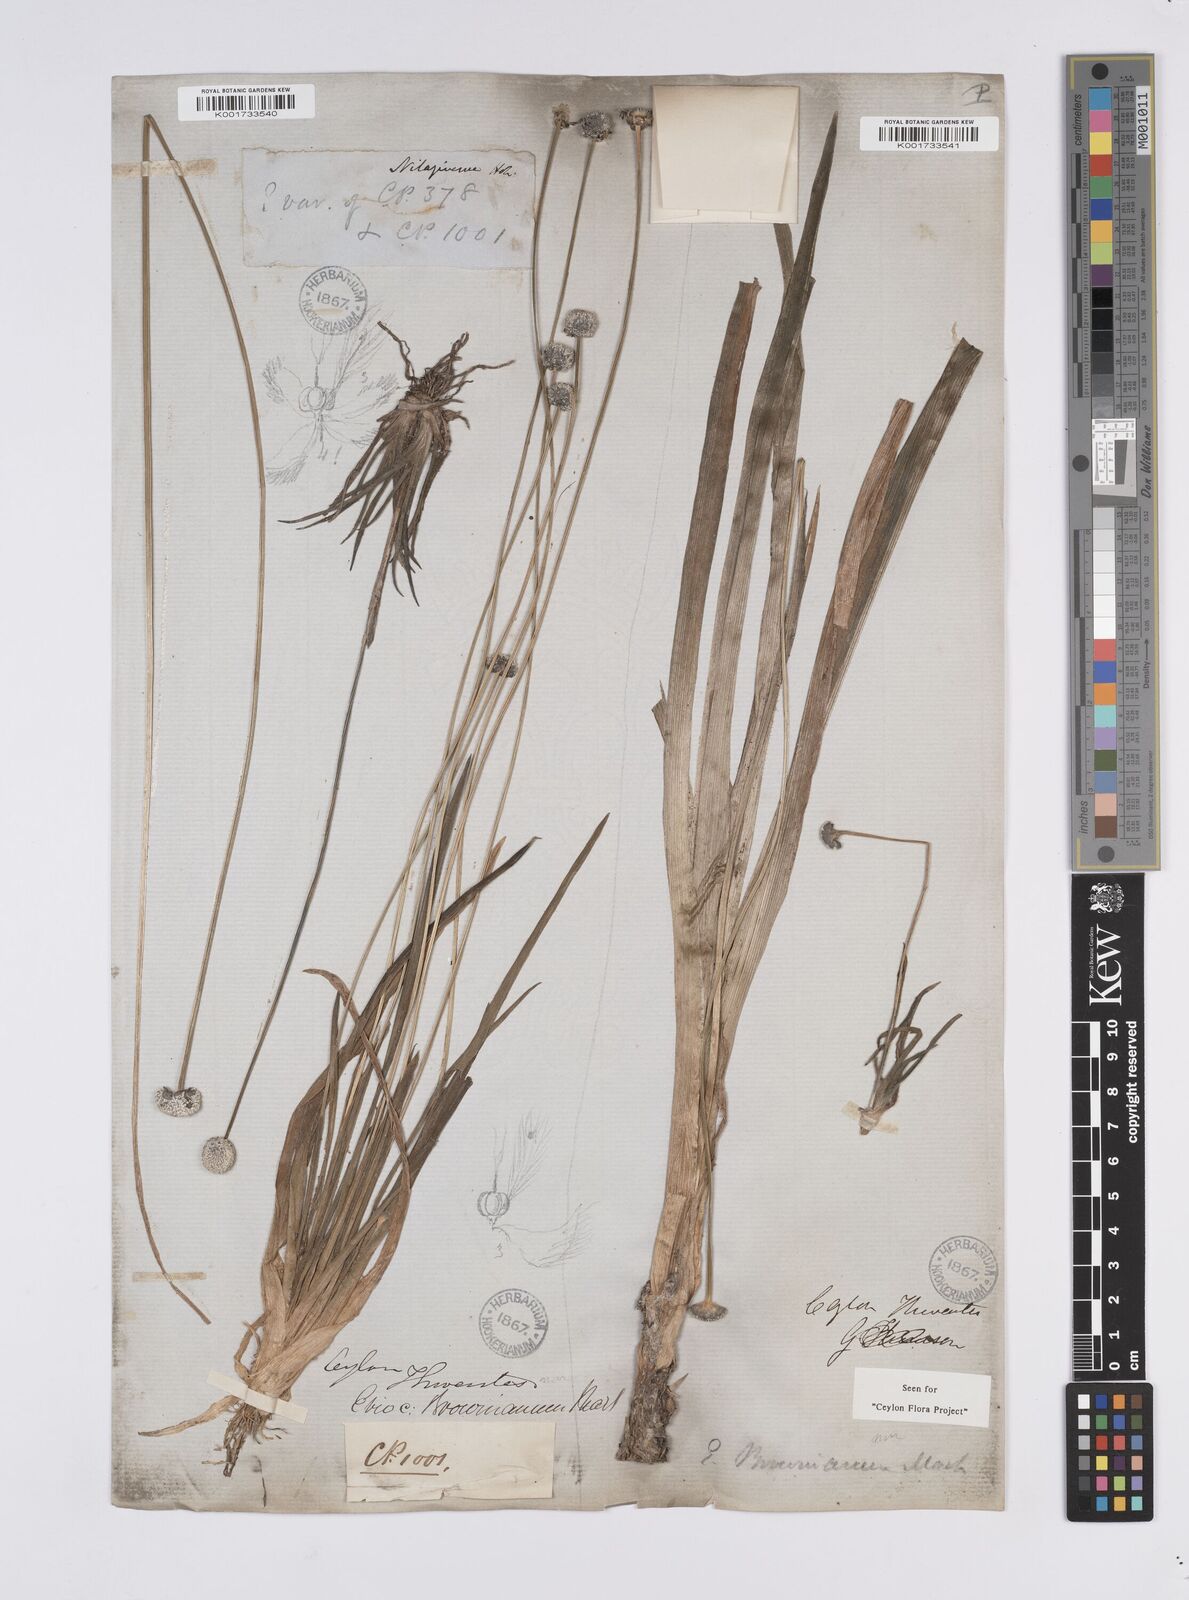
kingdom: Plantae
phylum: Tracheophyta
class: Liliopsida
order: Poales
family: Eriocaulaceae
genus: Eriocaulon
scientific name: Eriocaulon brownianum
